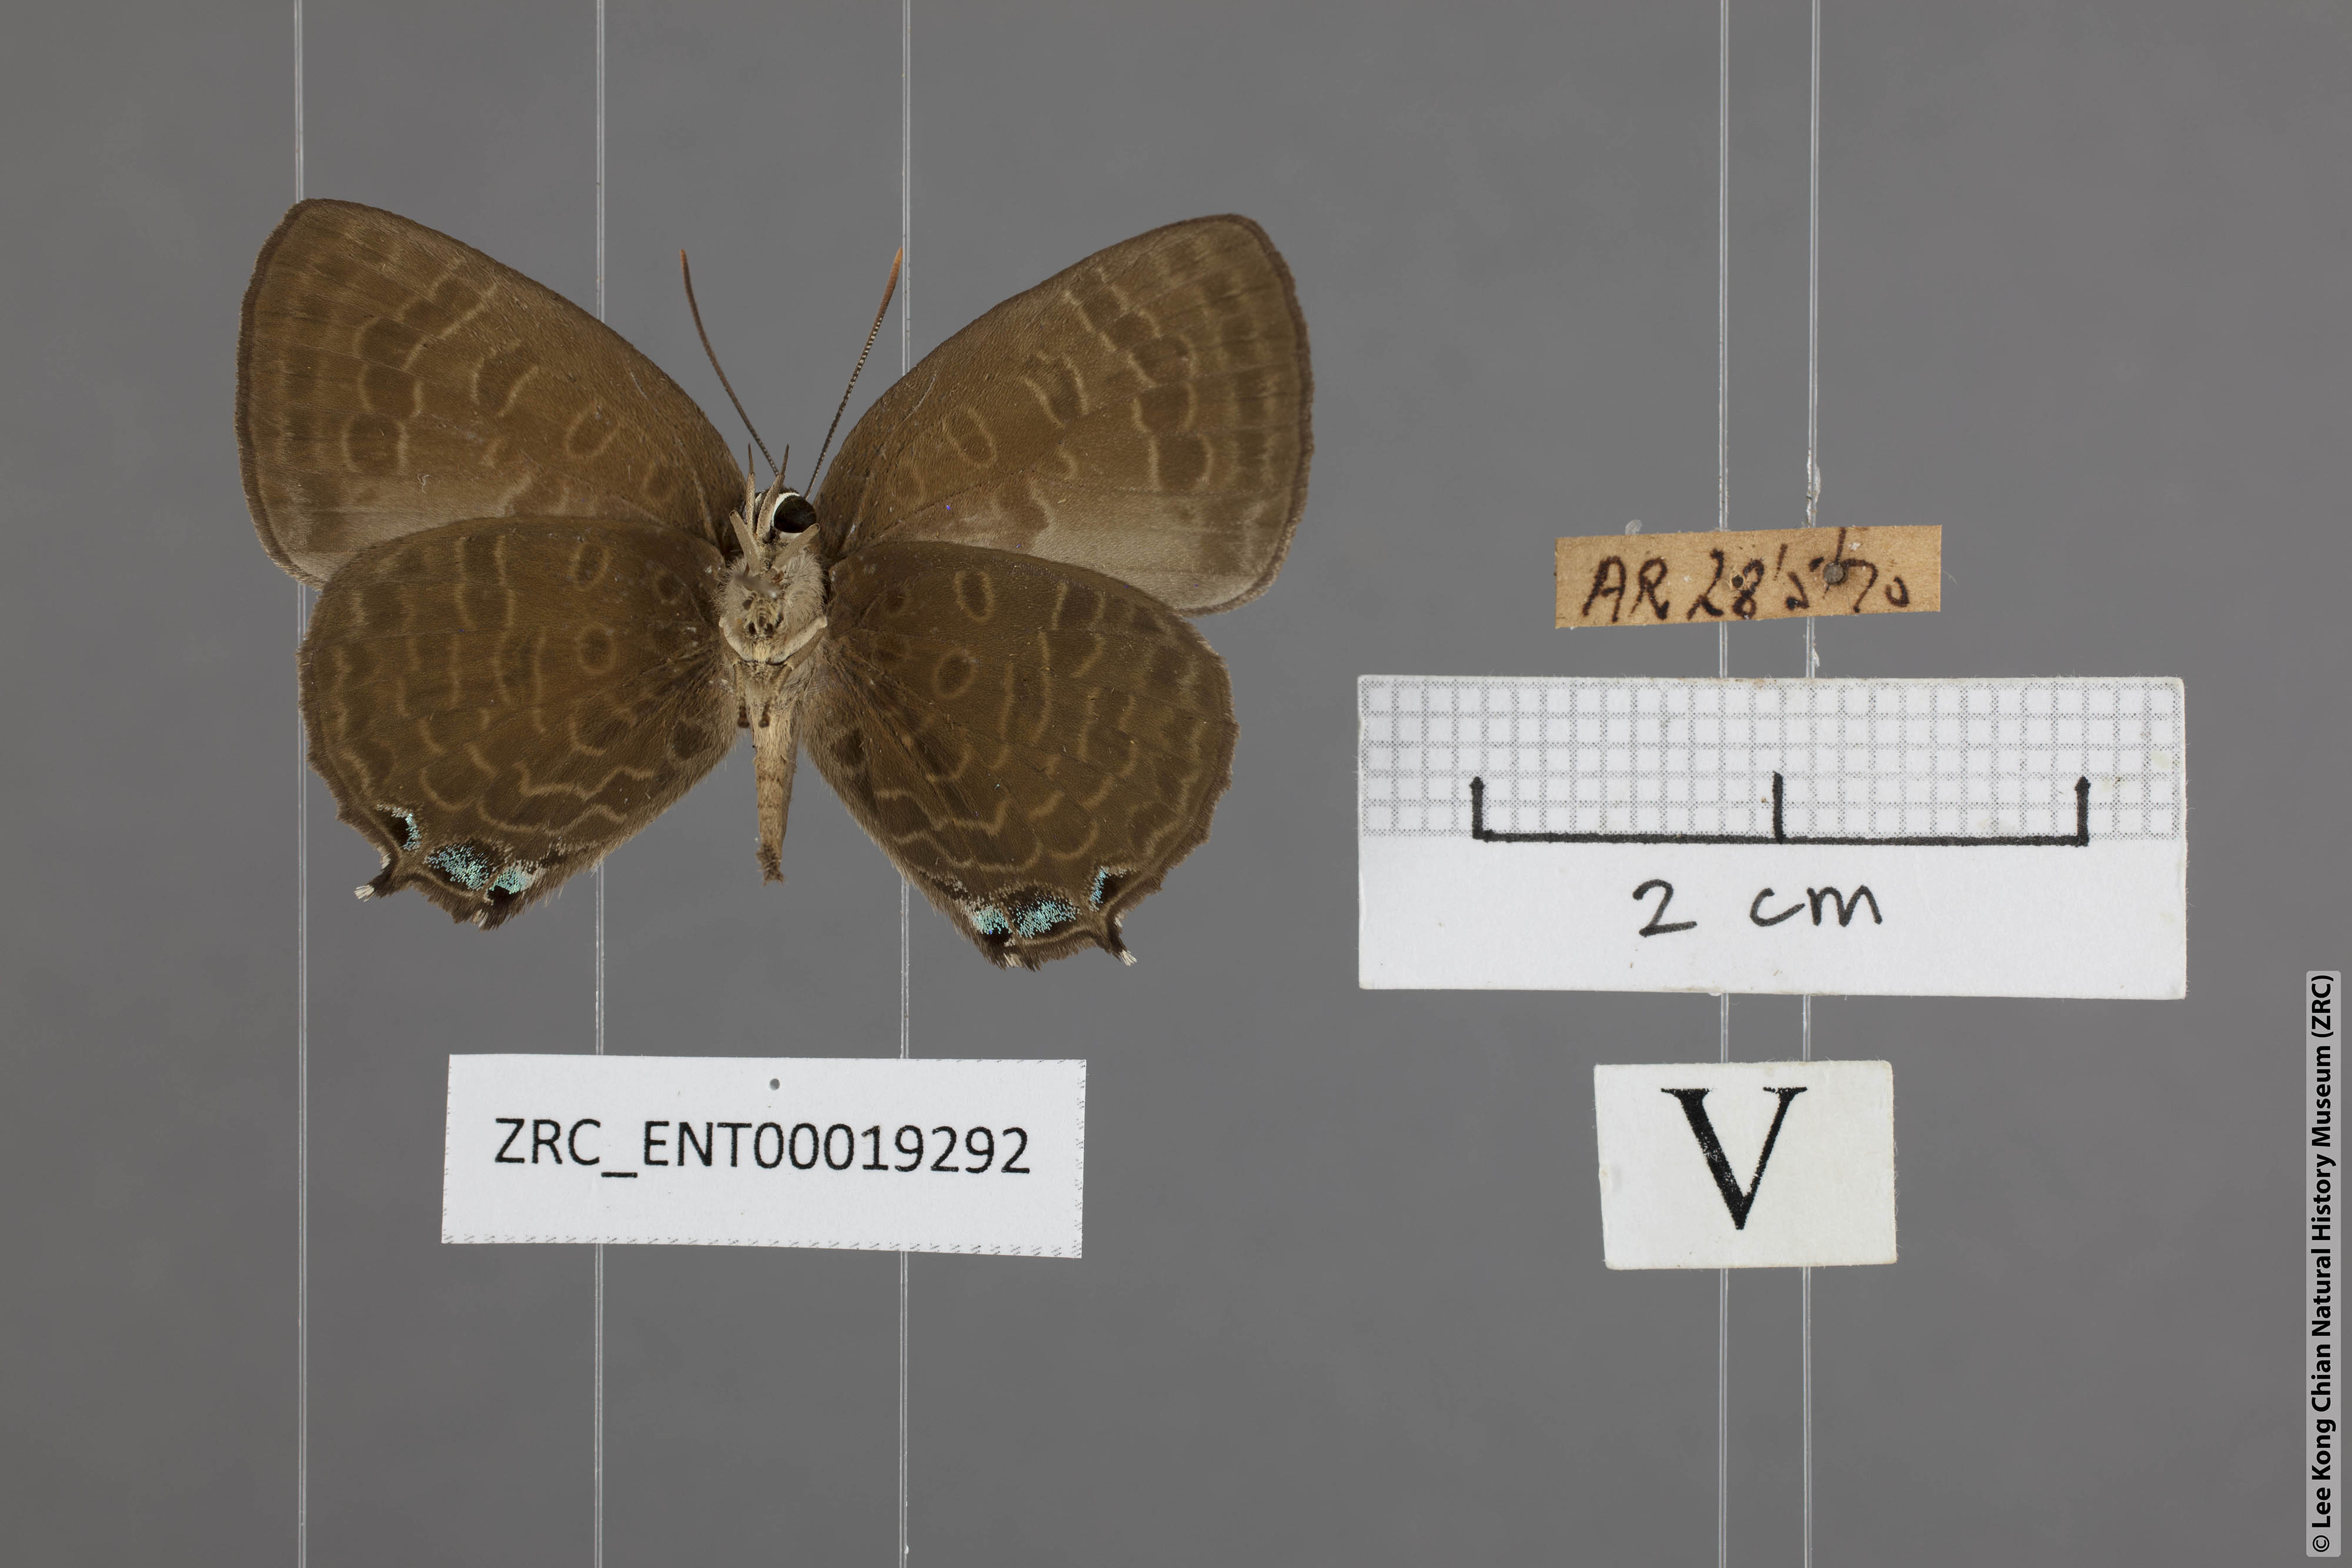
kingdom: Animalia
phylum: Arthropoda
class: Insecta
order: Lepidoptera
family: Lycaenidae
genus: Arhopala
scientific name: Arhopala aurea
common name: Long-celled oakblue
